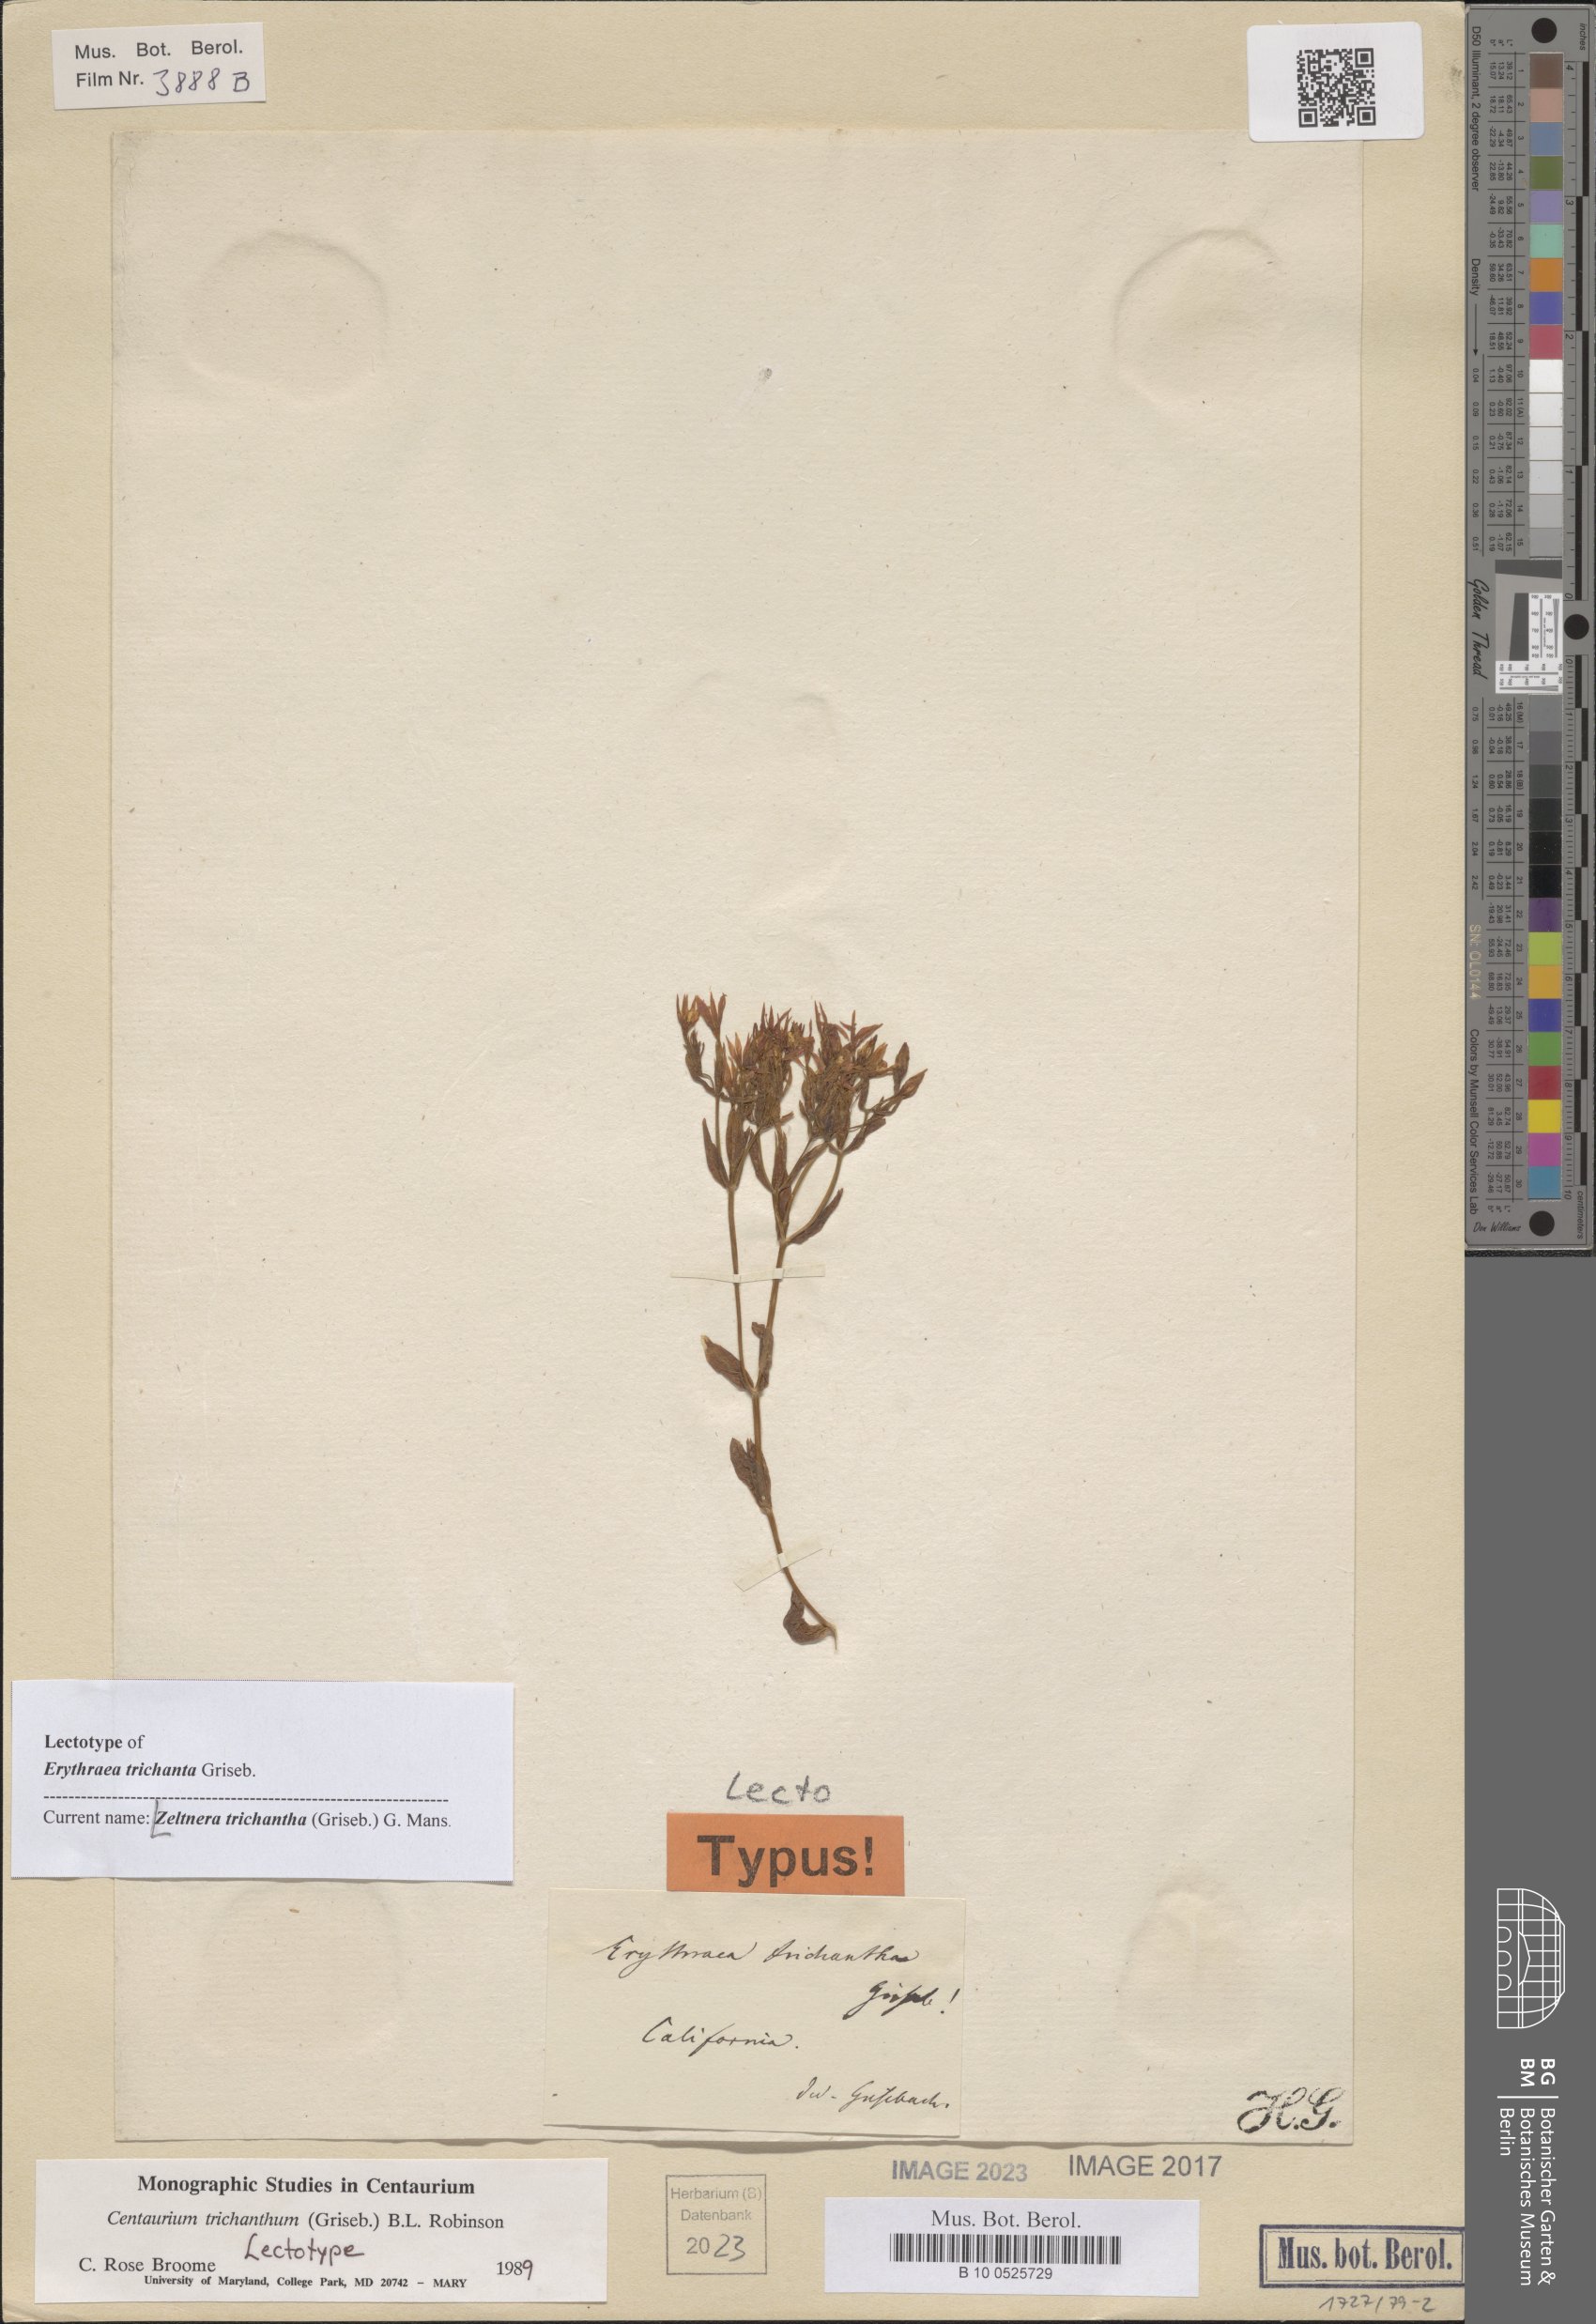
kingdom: Plantae
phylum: Tracheophyta
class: Magnoliopsida
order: Gentianales
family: Gentianaceae
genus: Zeltnera
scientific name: Zeltnera trichantha
